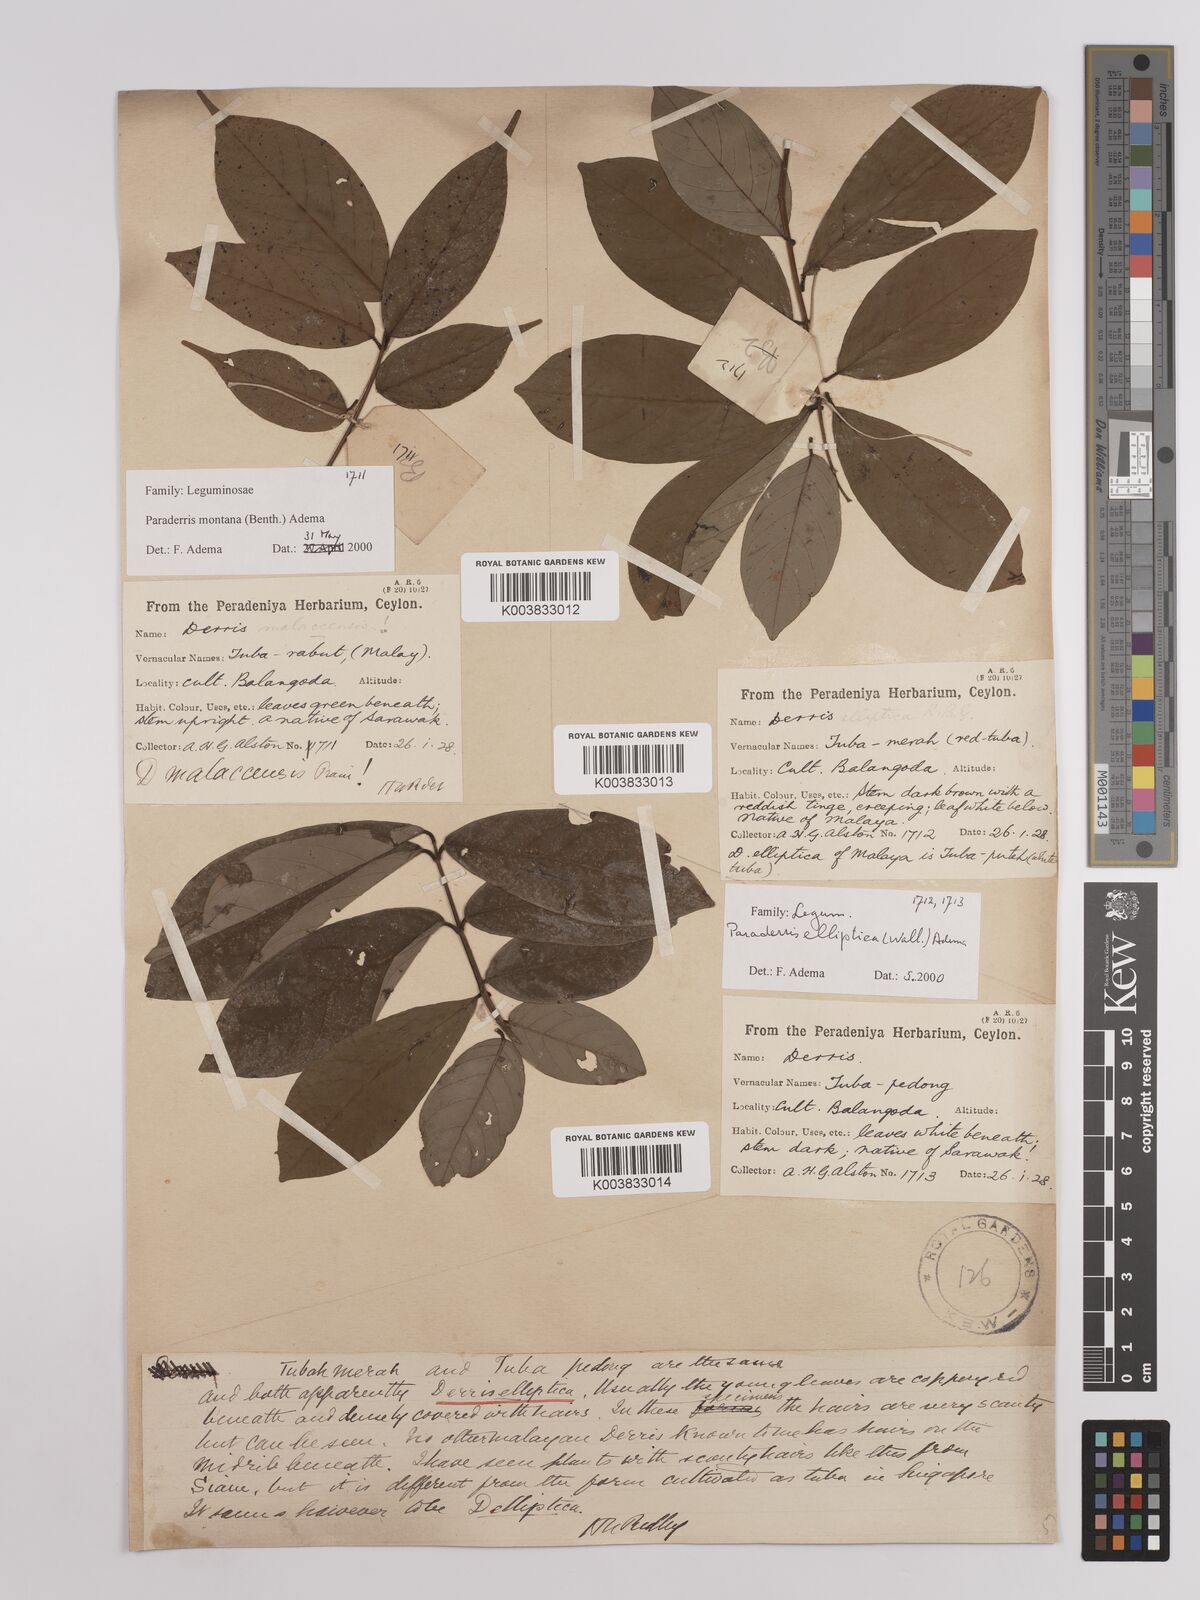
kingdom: Plantae
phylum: Tracheophyta
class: Magnoliopsida
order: Fabales
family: Fabaceae
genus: Derris
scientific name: Derris elliptica
